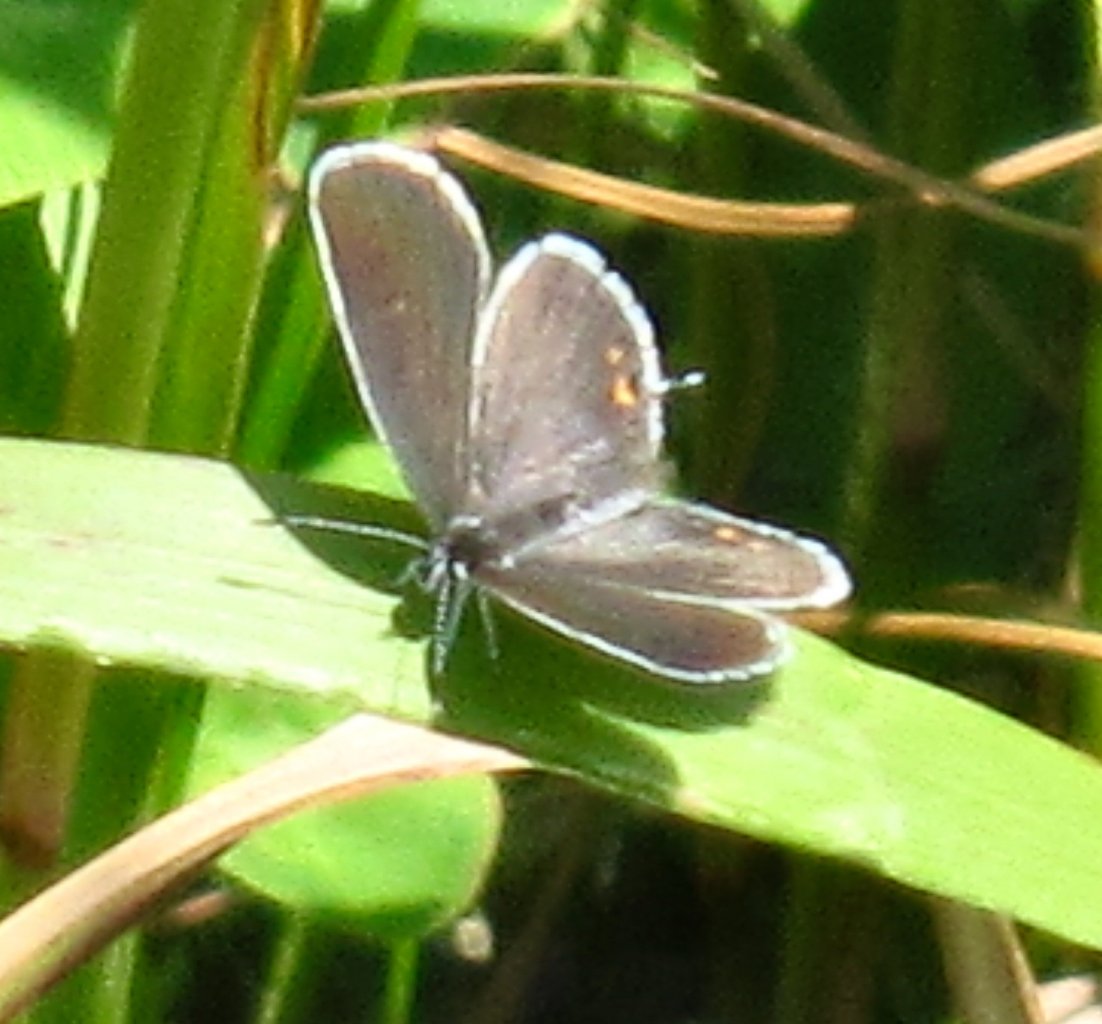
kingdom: Animalia
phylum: Arthropoda
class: Insecta
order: Lepidoptera
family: Lycaenidae
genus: Elkalyce
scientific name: Elkalyce comyntas
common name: Eastern Tailed-Blue
